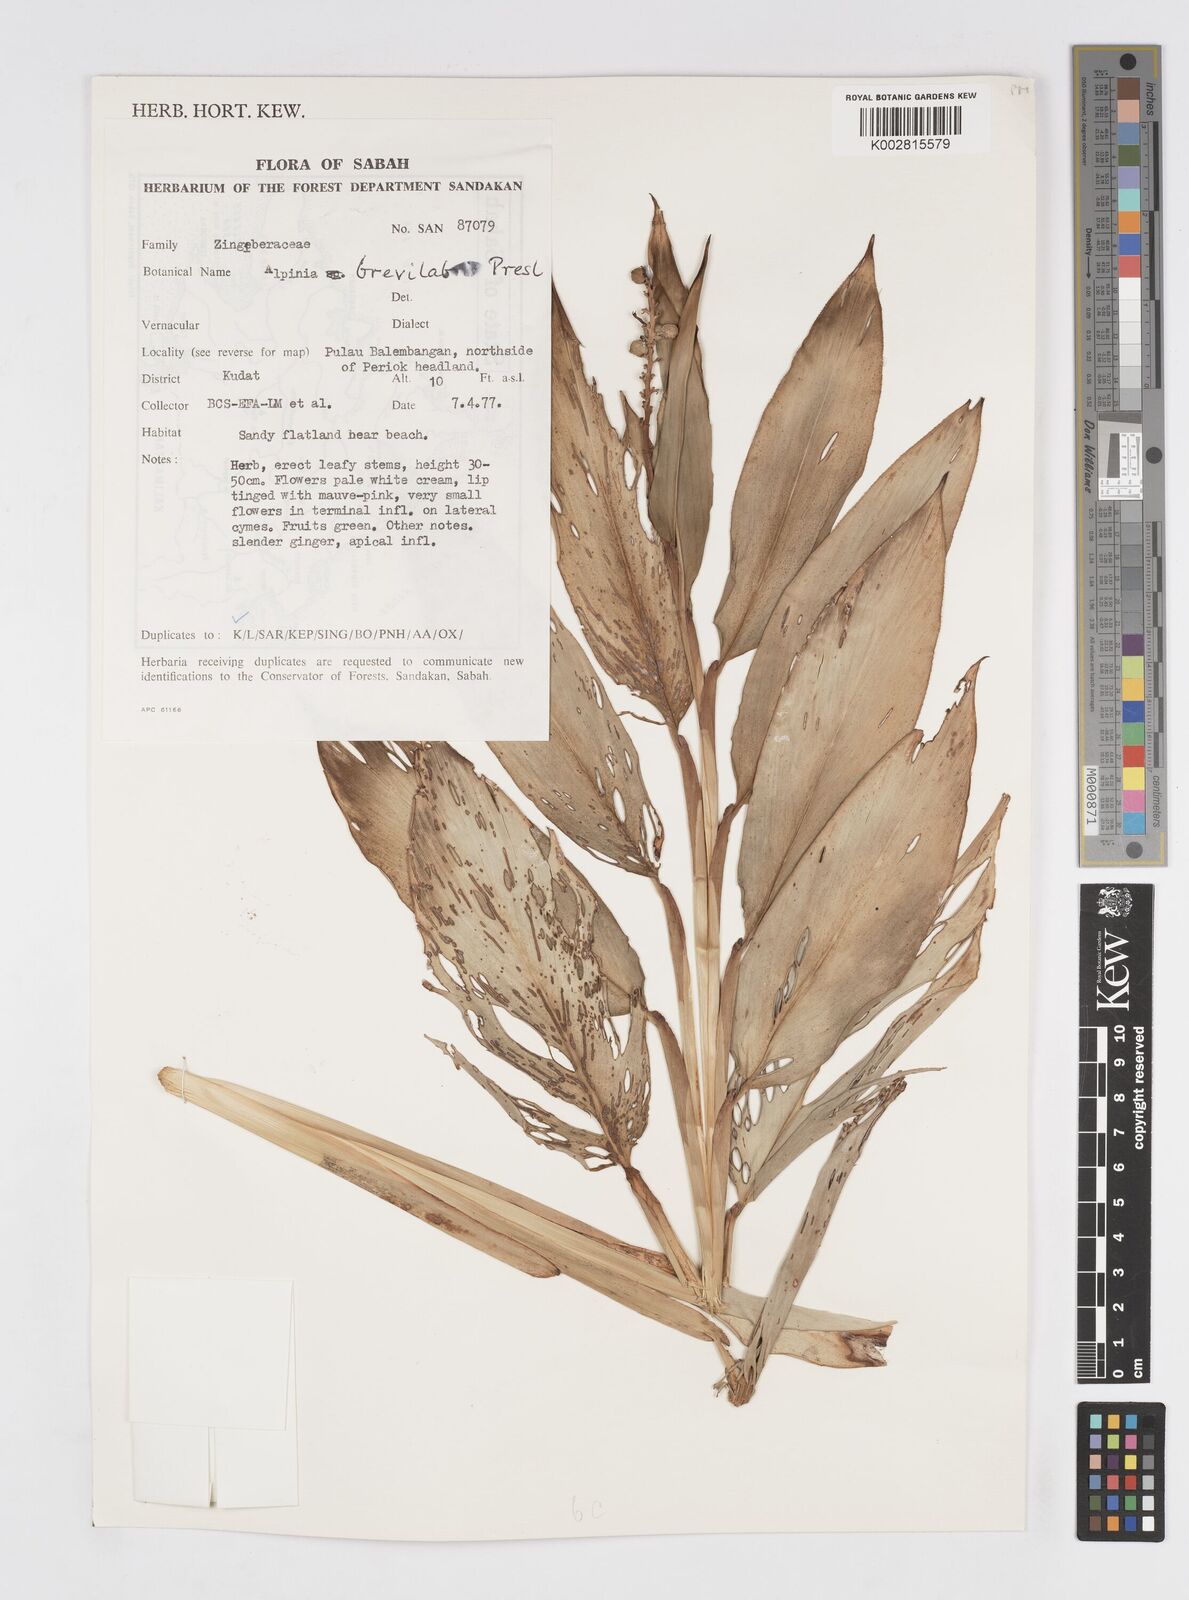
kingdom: Plantae
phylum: Tracheophyta
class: Liliopsida
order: Zingiberales
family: Zingiberaceae
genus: Alpinia
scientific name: Alpinia brevilabris
